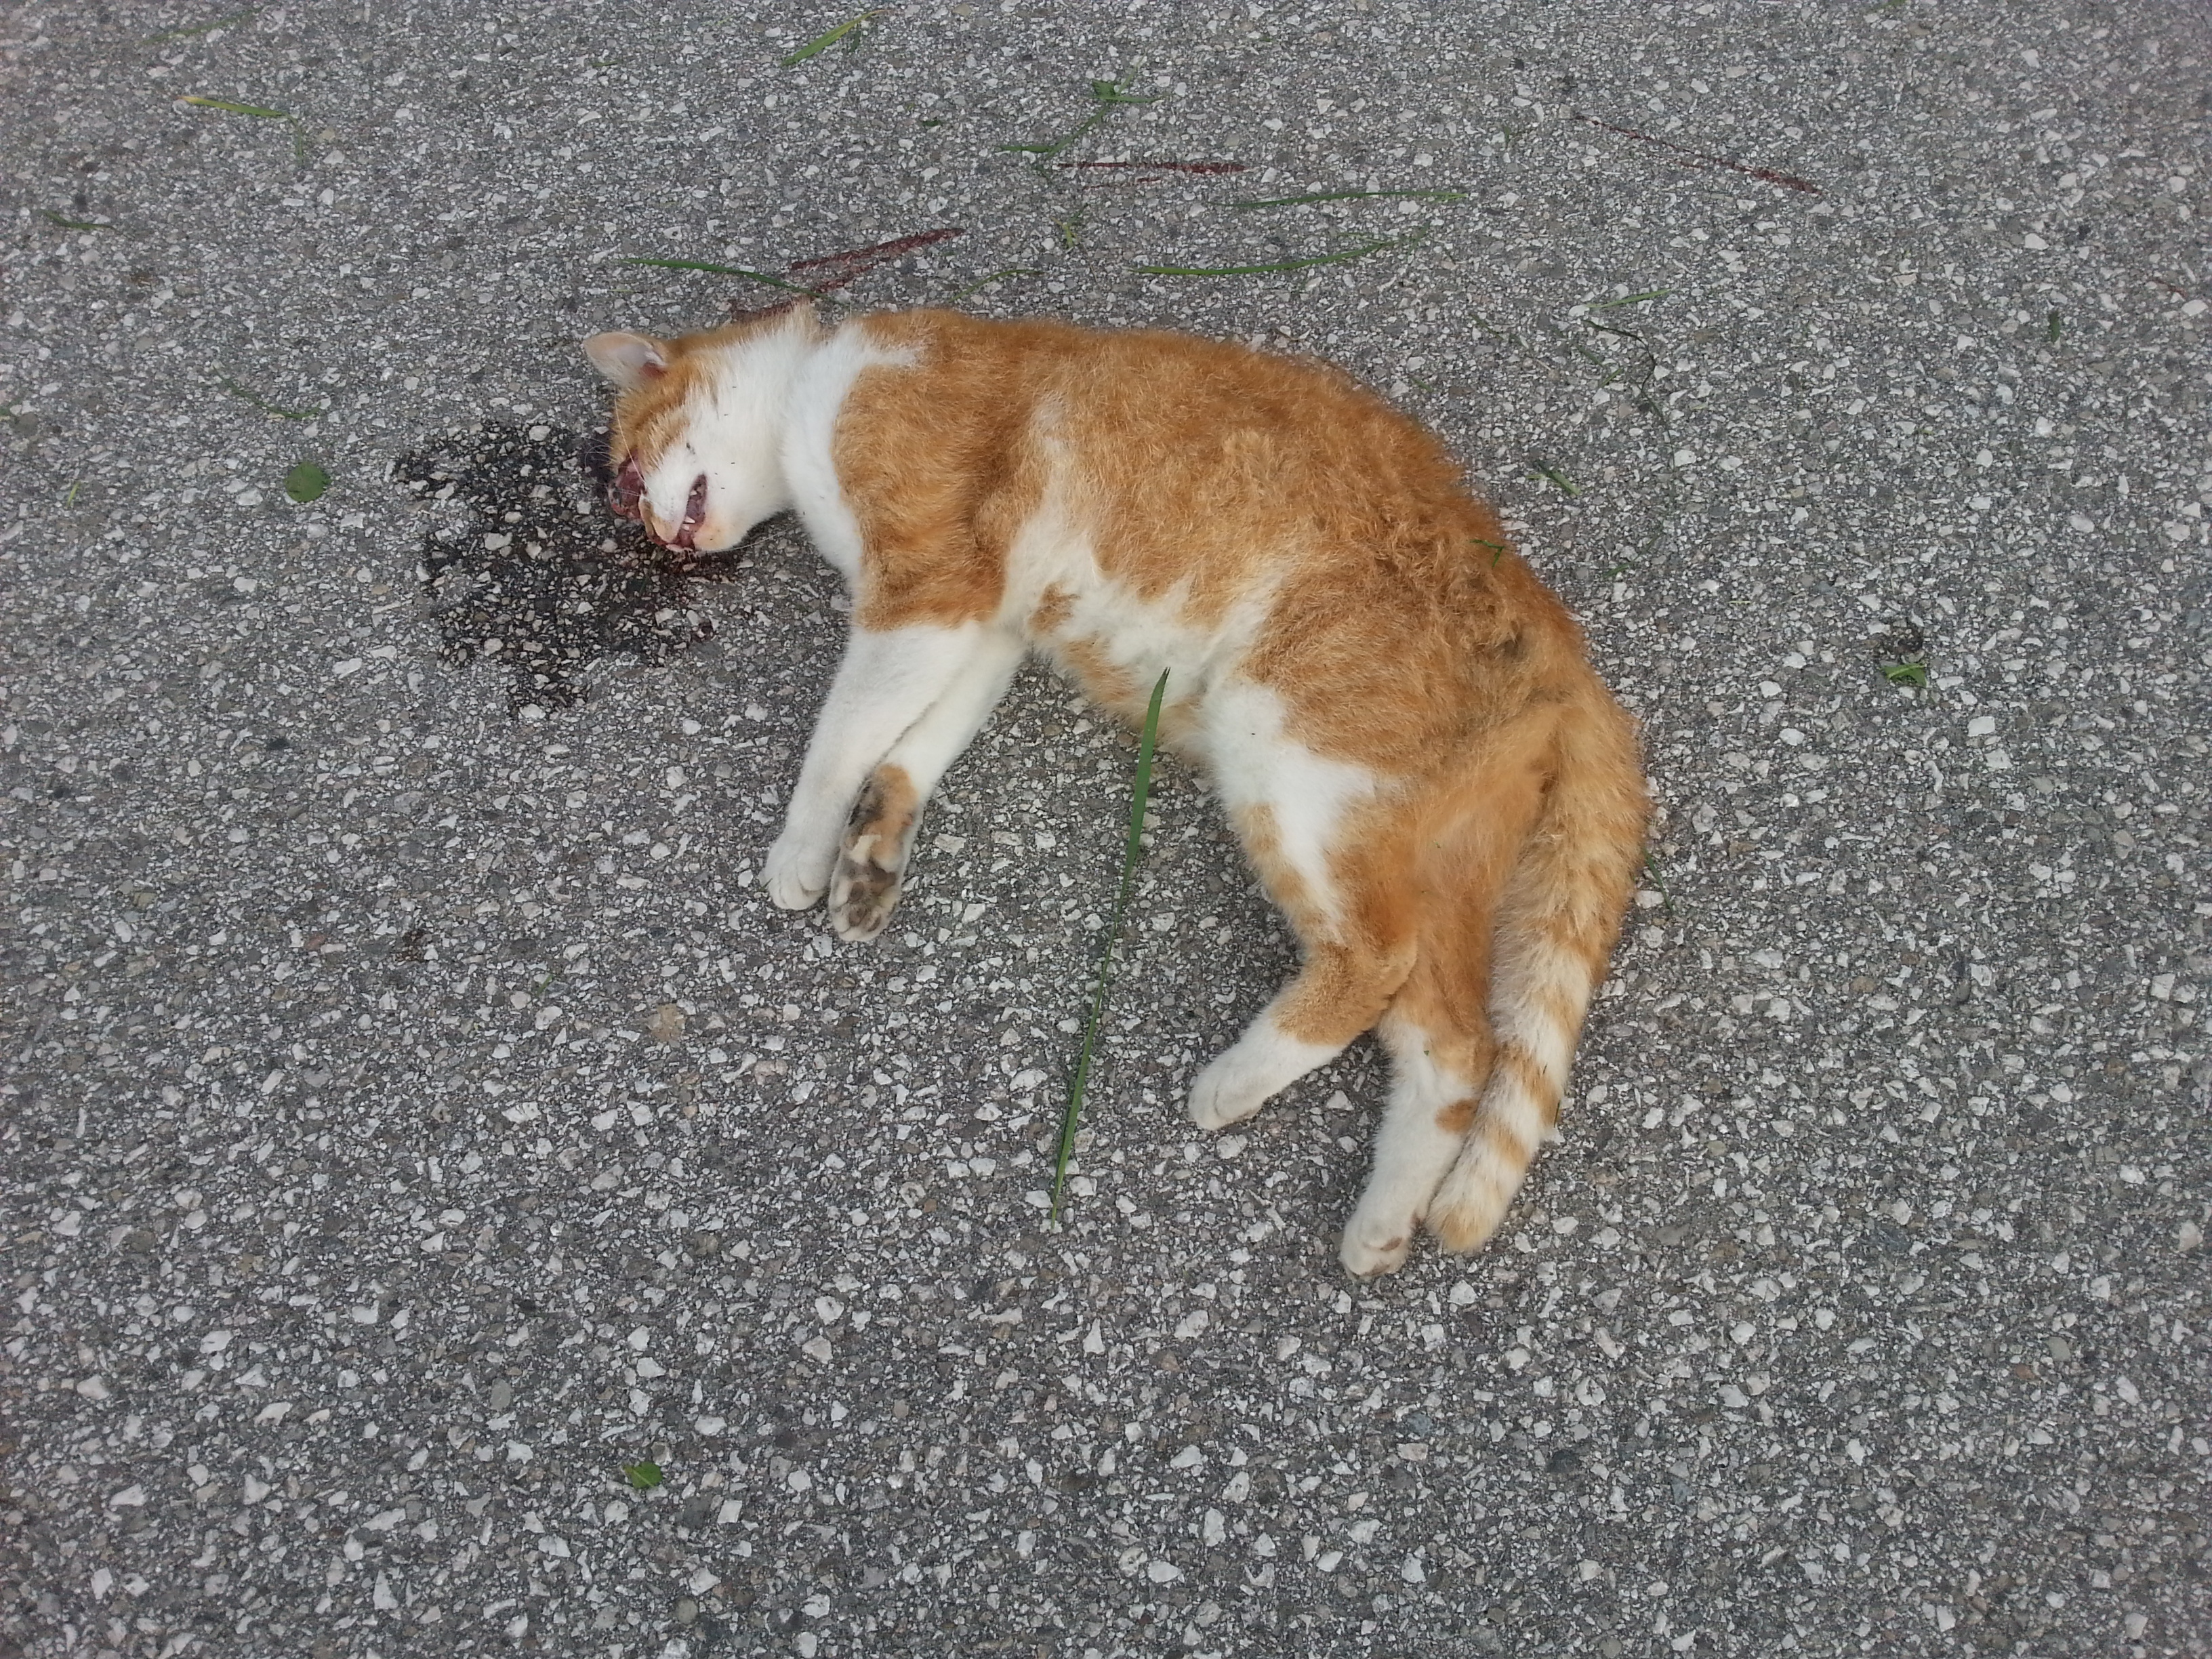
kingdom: Animalia
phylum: Chordata
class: Mammalia
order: Carnivora
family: Felidae
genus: Felis
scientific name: Felis catus
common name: Domestic cat
